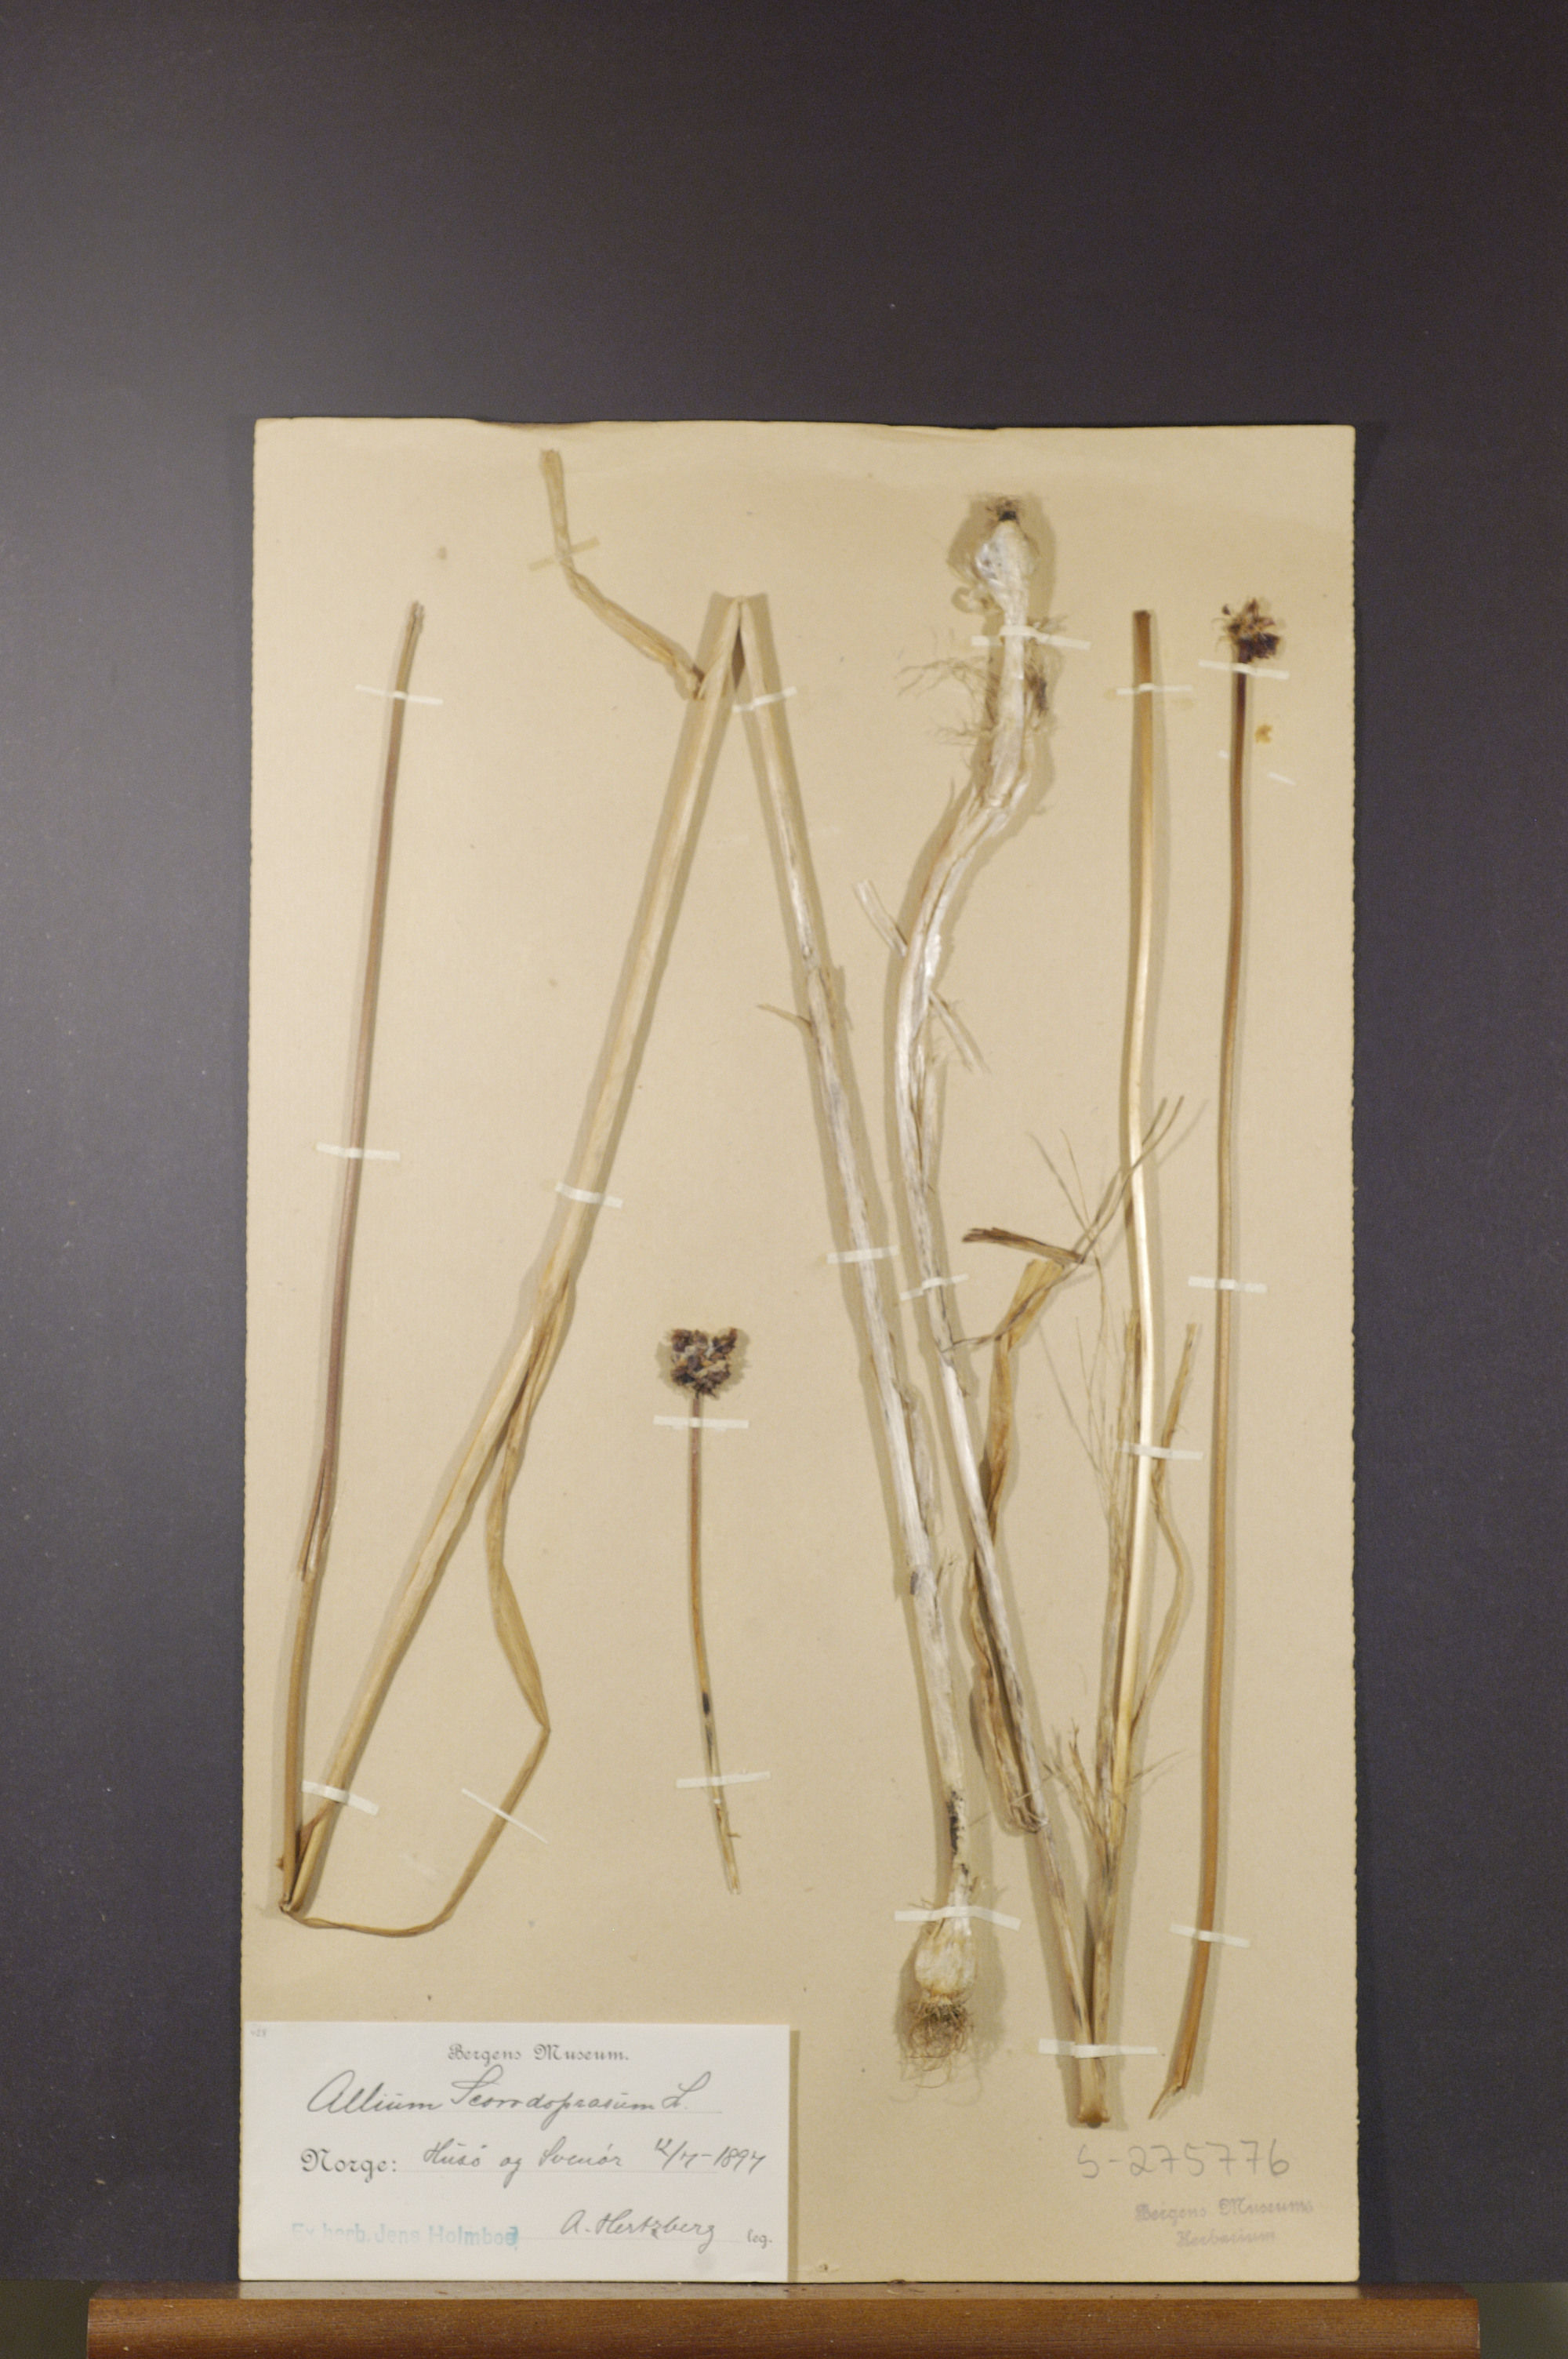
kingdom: Plantae
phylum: Tracheophyta
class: Liliopsida
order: Asparagales
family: Amaryllidaceae
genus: Allium
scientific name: Allium scorodoprasum
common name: Sand leek
